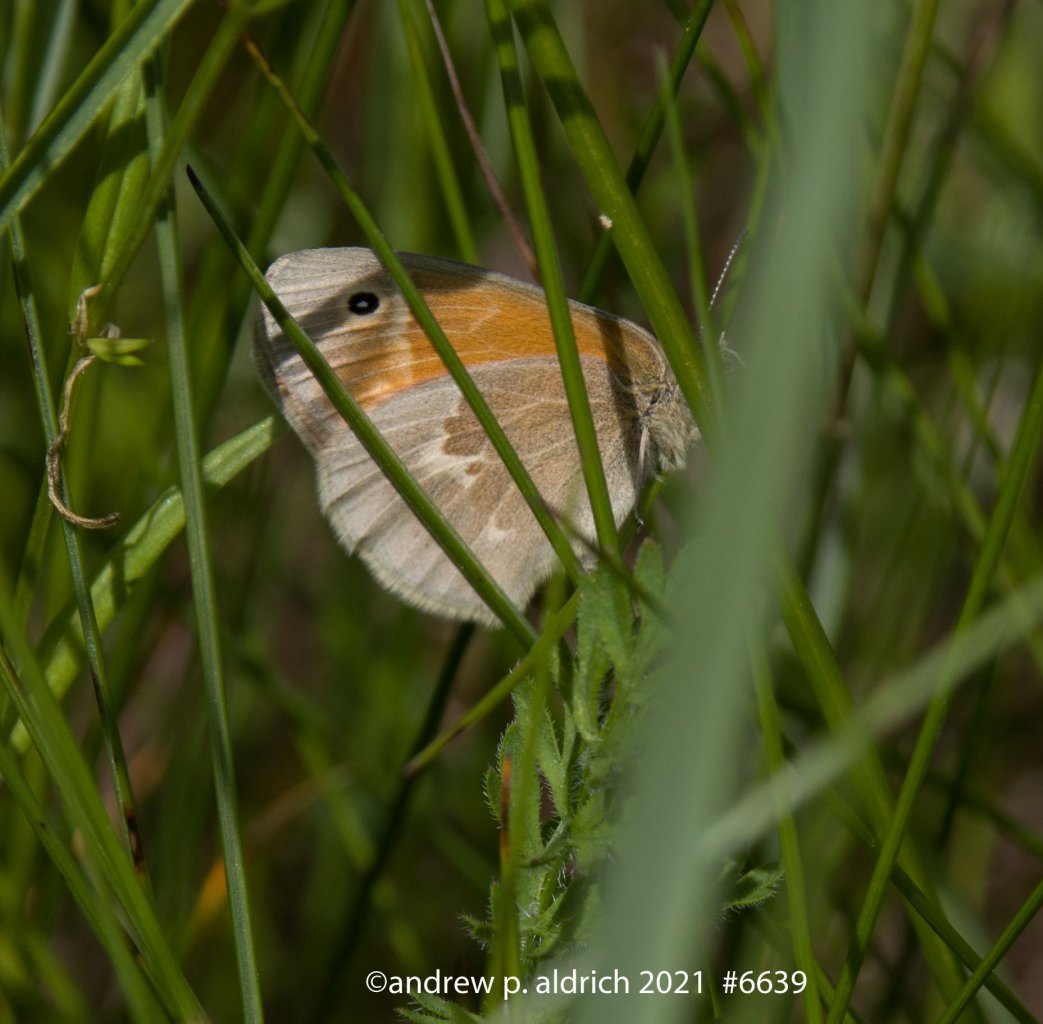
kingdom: Animalia
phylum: Arthropoda
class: Insecta
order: Lepidoptera
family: Nymphalidae
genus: Coenonympha
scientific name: Coenonympha tullia
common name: Large Heath
